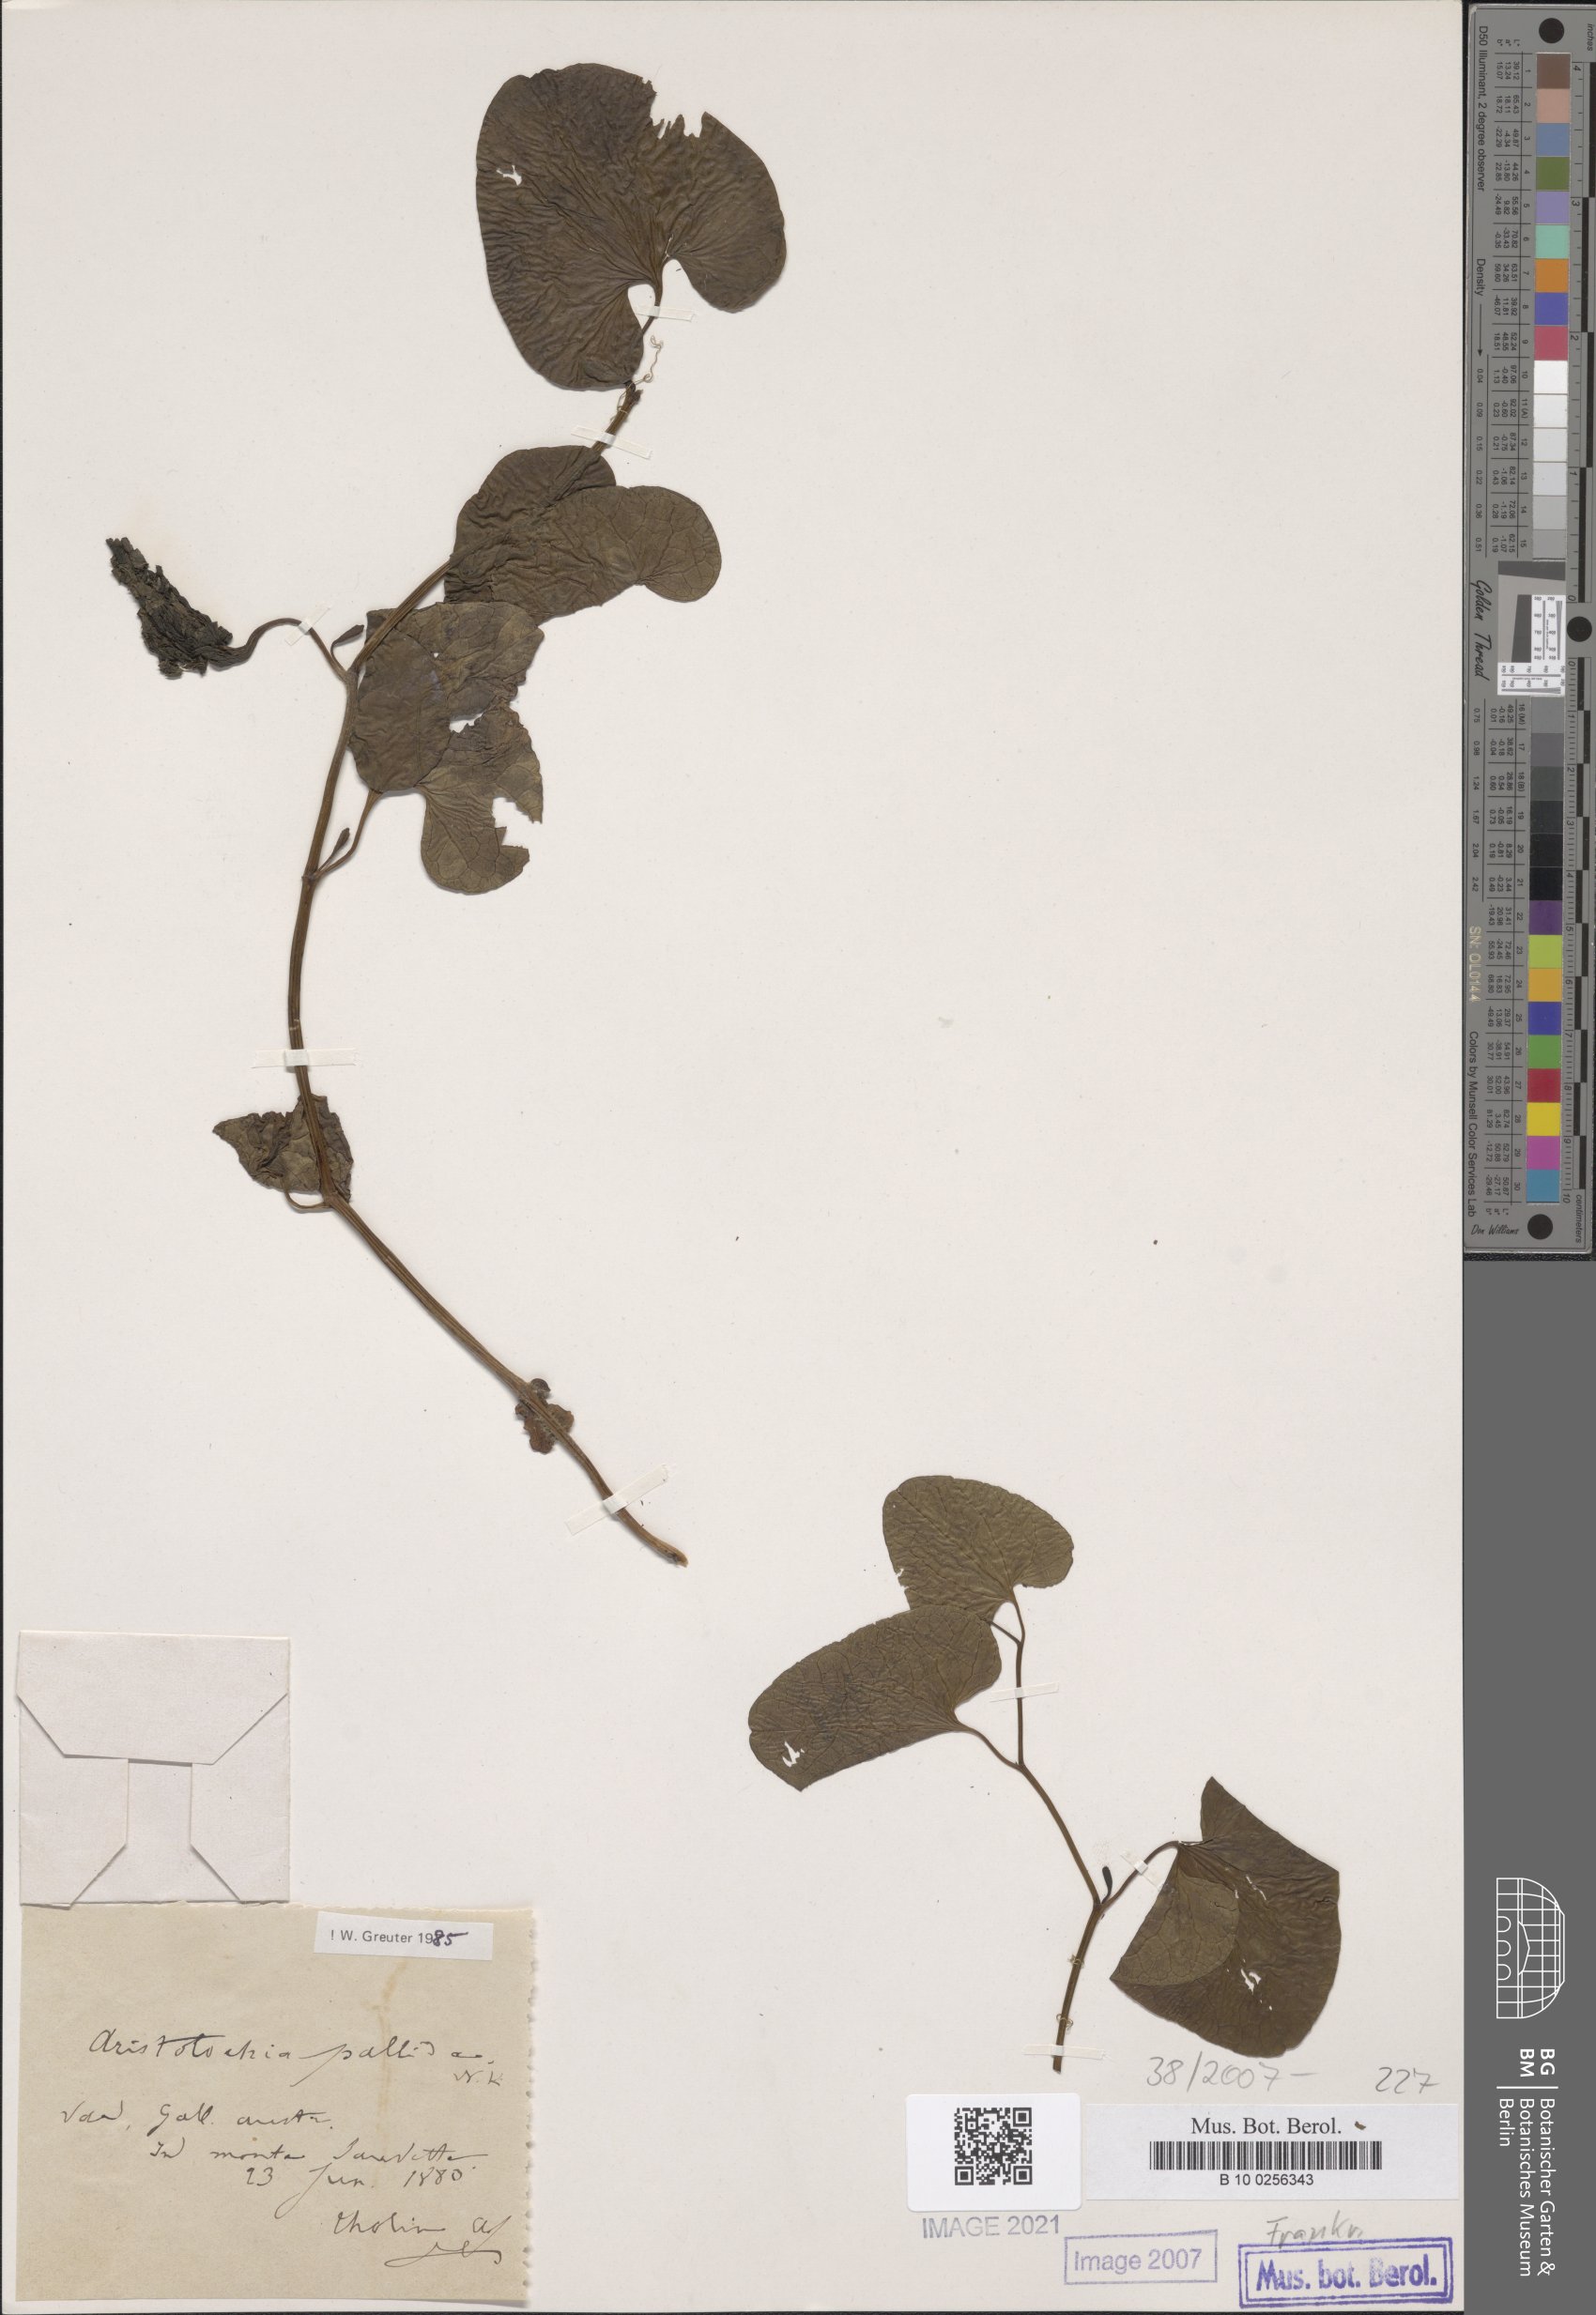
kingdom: Plantae
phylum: Tracheophyta
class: Magnoliopsida
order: Piperales
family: Aristolochiaceae
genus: Aristolochia
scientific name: Aristolochia pallida
